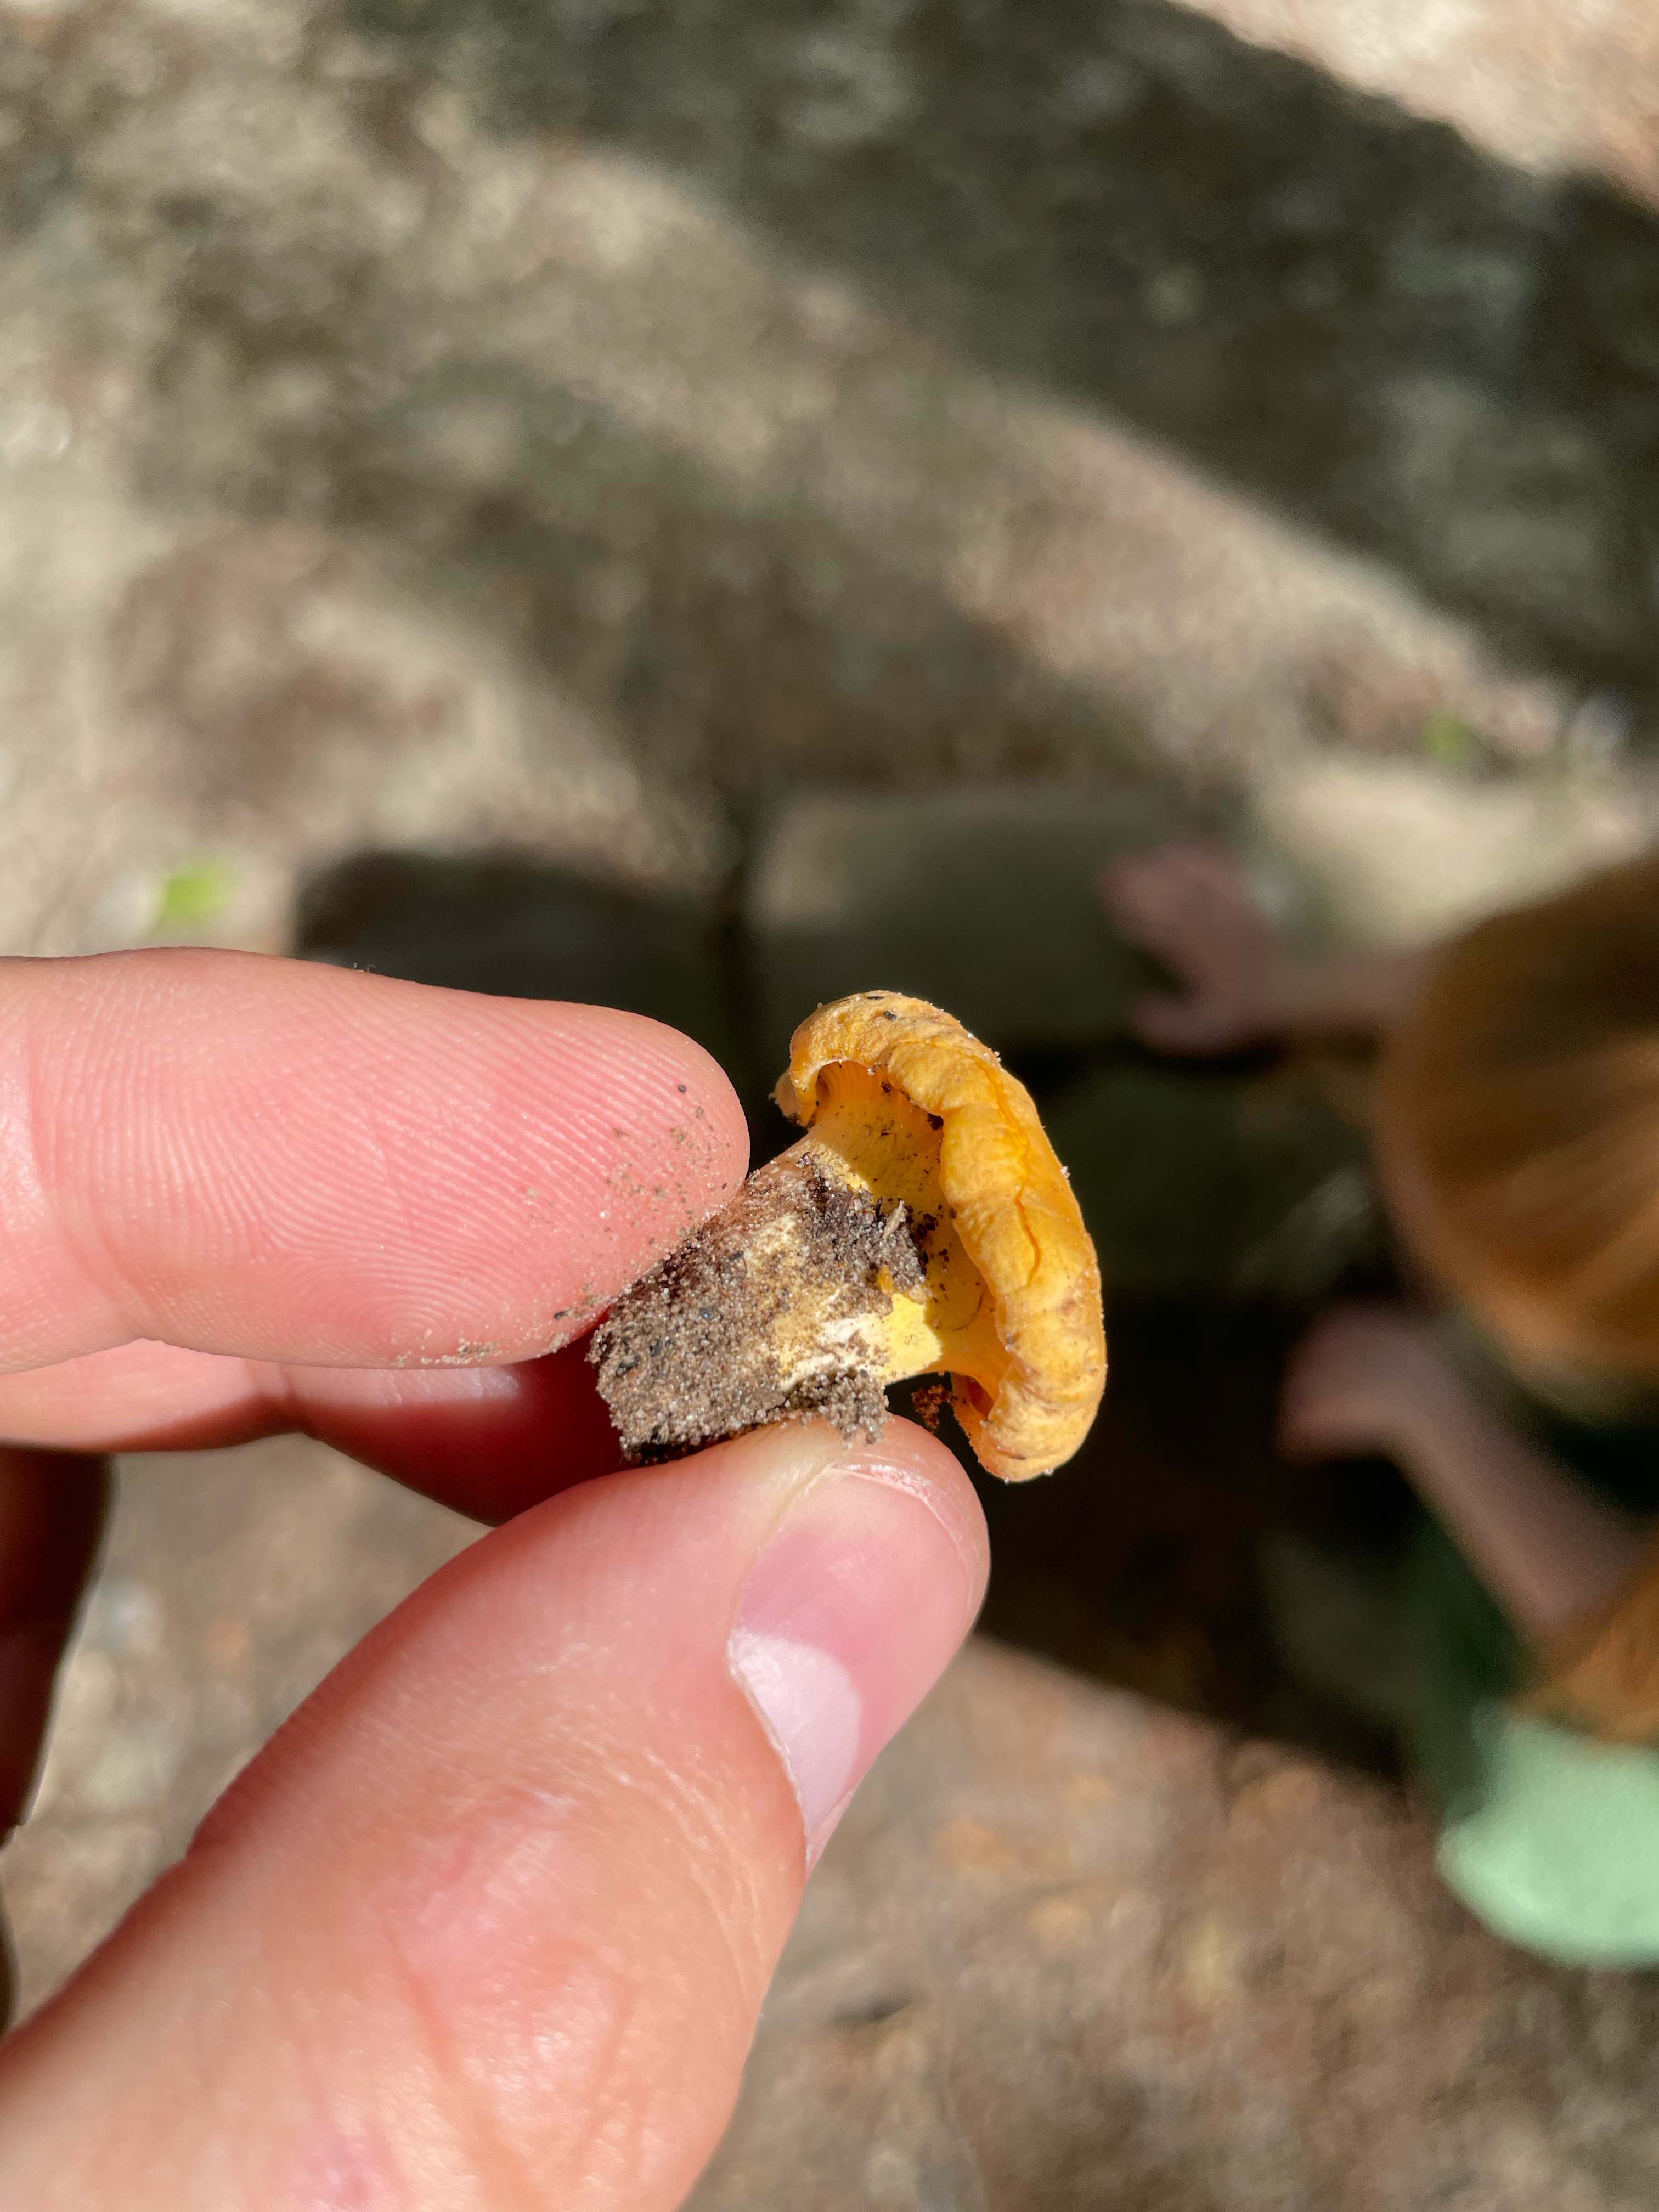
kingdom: Fungi
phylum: Basidiomycota
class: Agaricomycetes
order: Cantharellales
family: Hydnaceae
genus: Cantharellus
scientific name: Cantharellus cibarius
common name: almindelig kantarel
